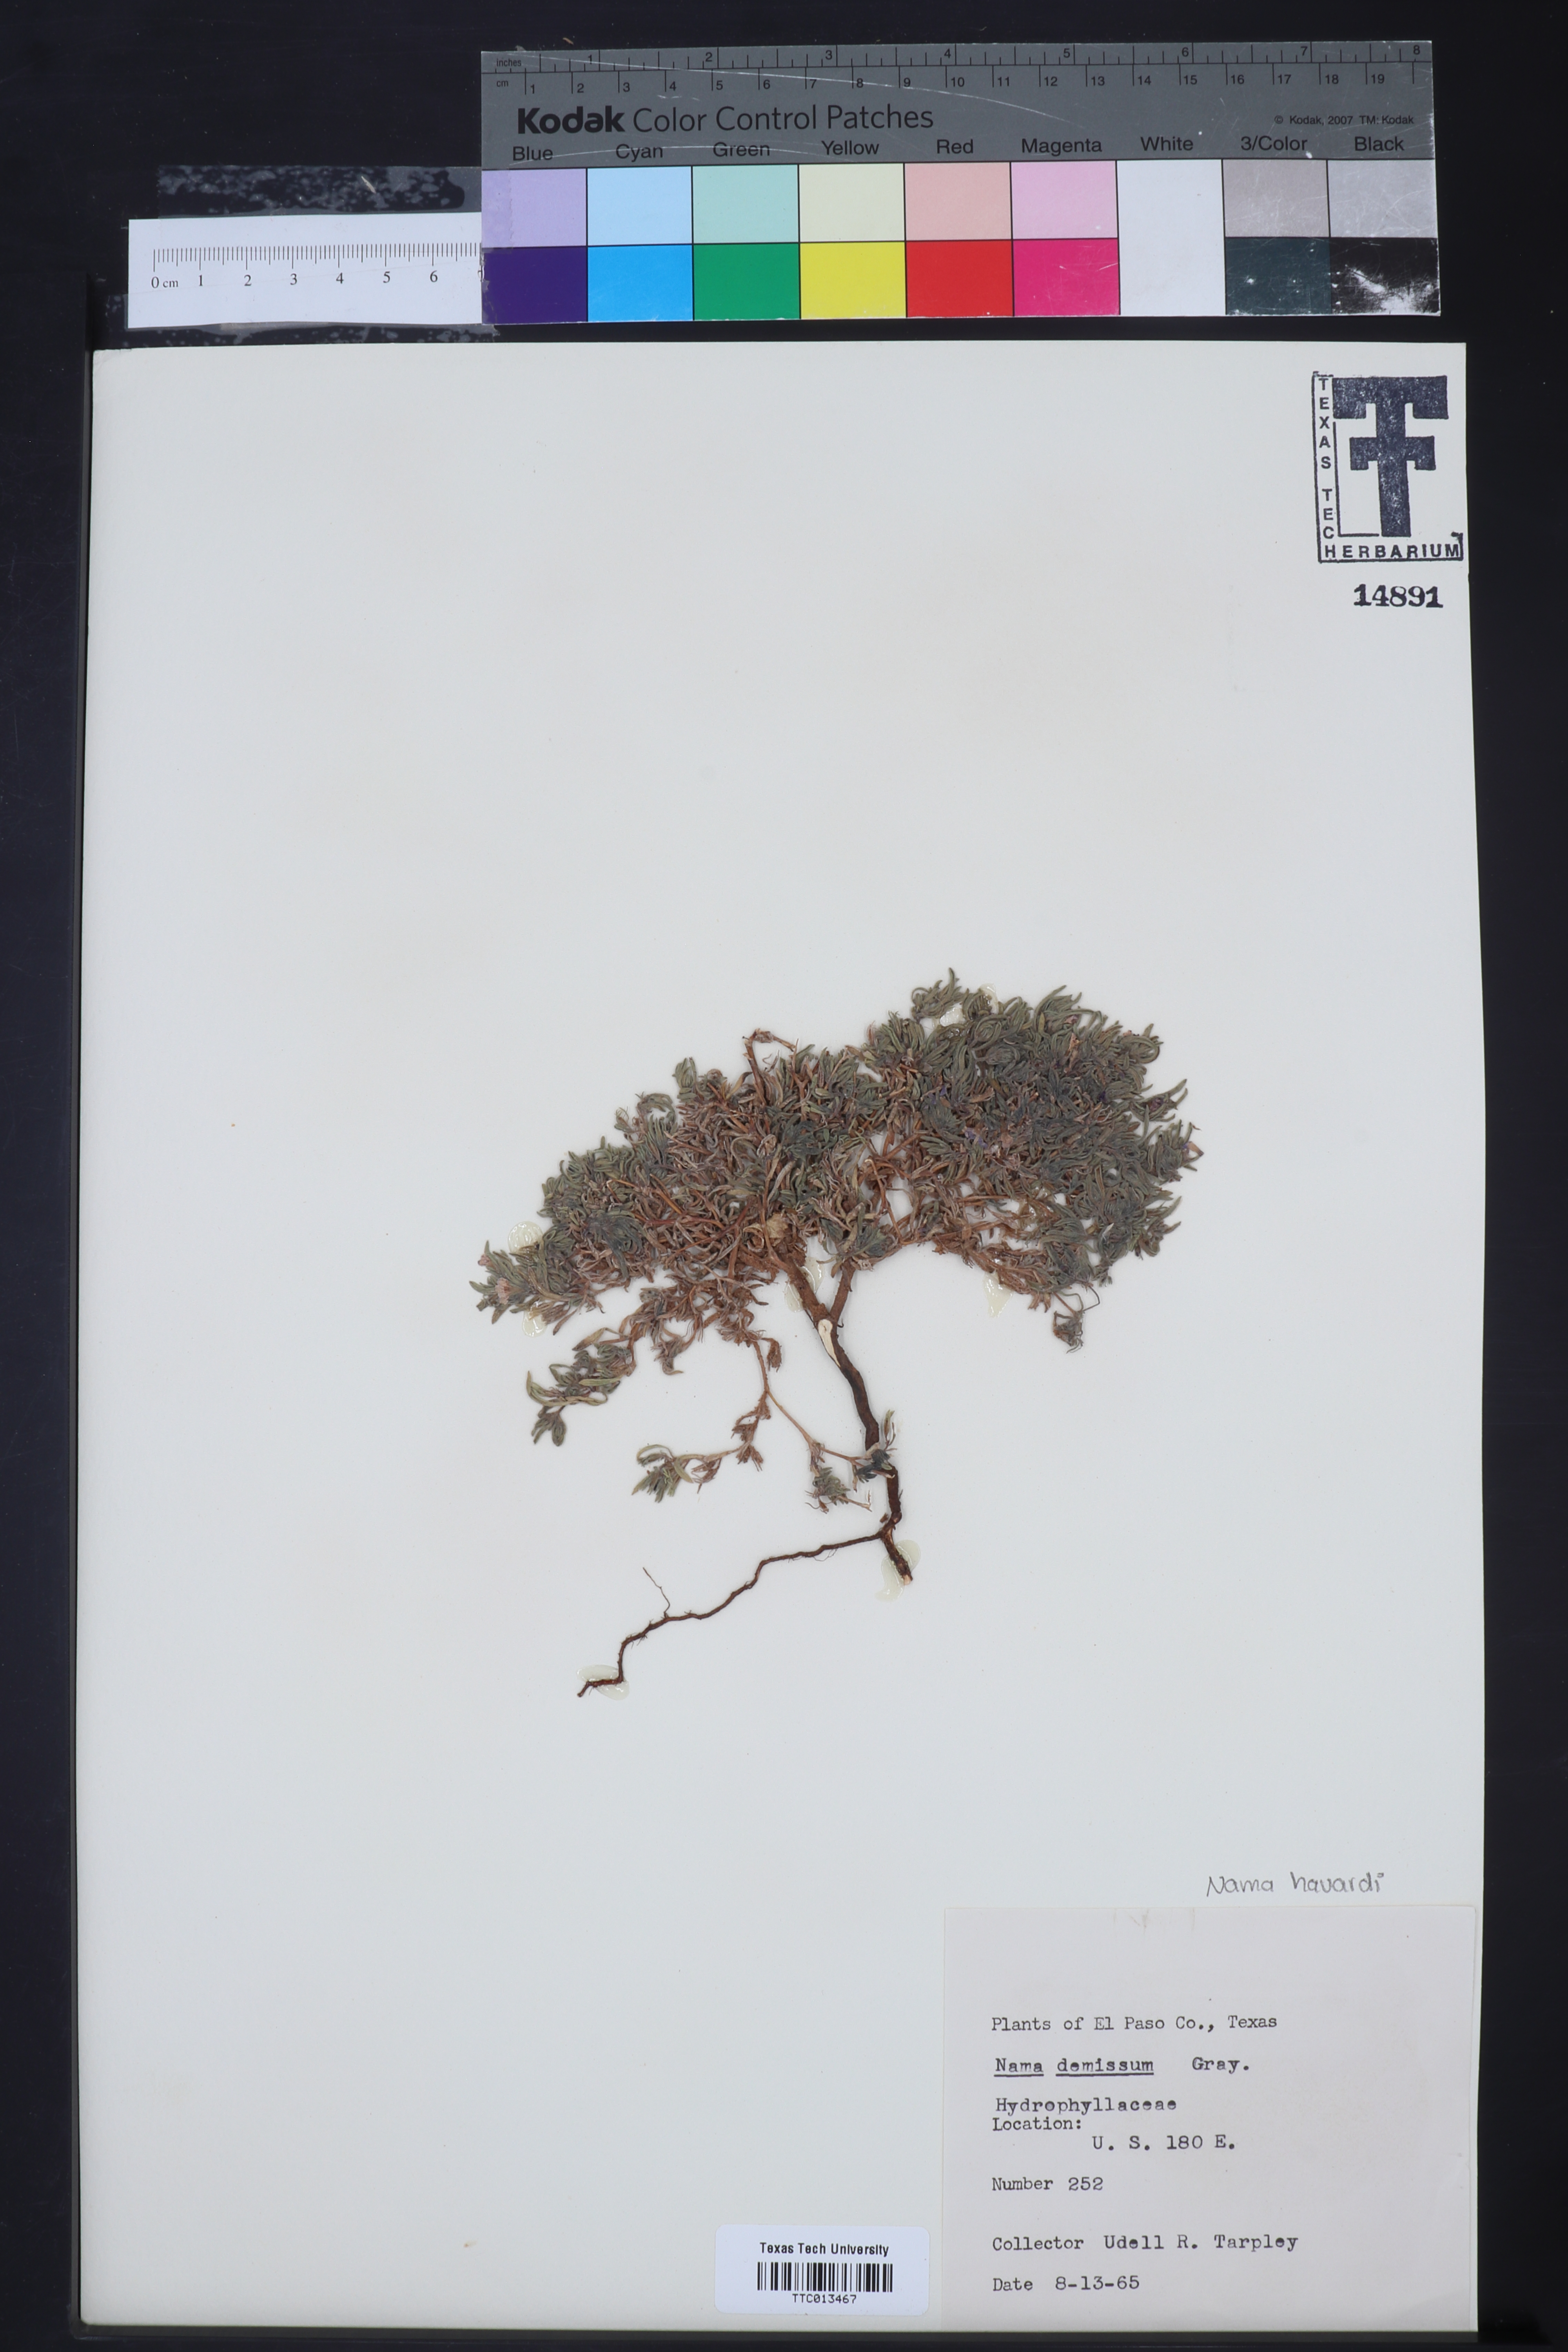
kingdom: Plantae
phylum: Tracheophyta
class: Magnoliopsida
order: Boraginales
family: Namaceae
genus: Nama
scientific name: Nama demissa
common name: Leafy nama
